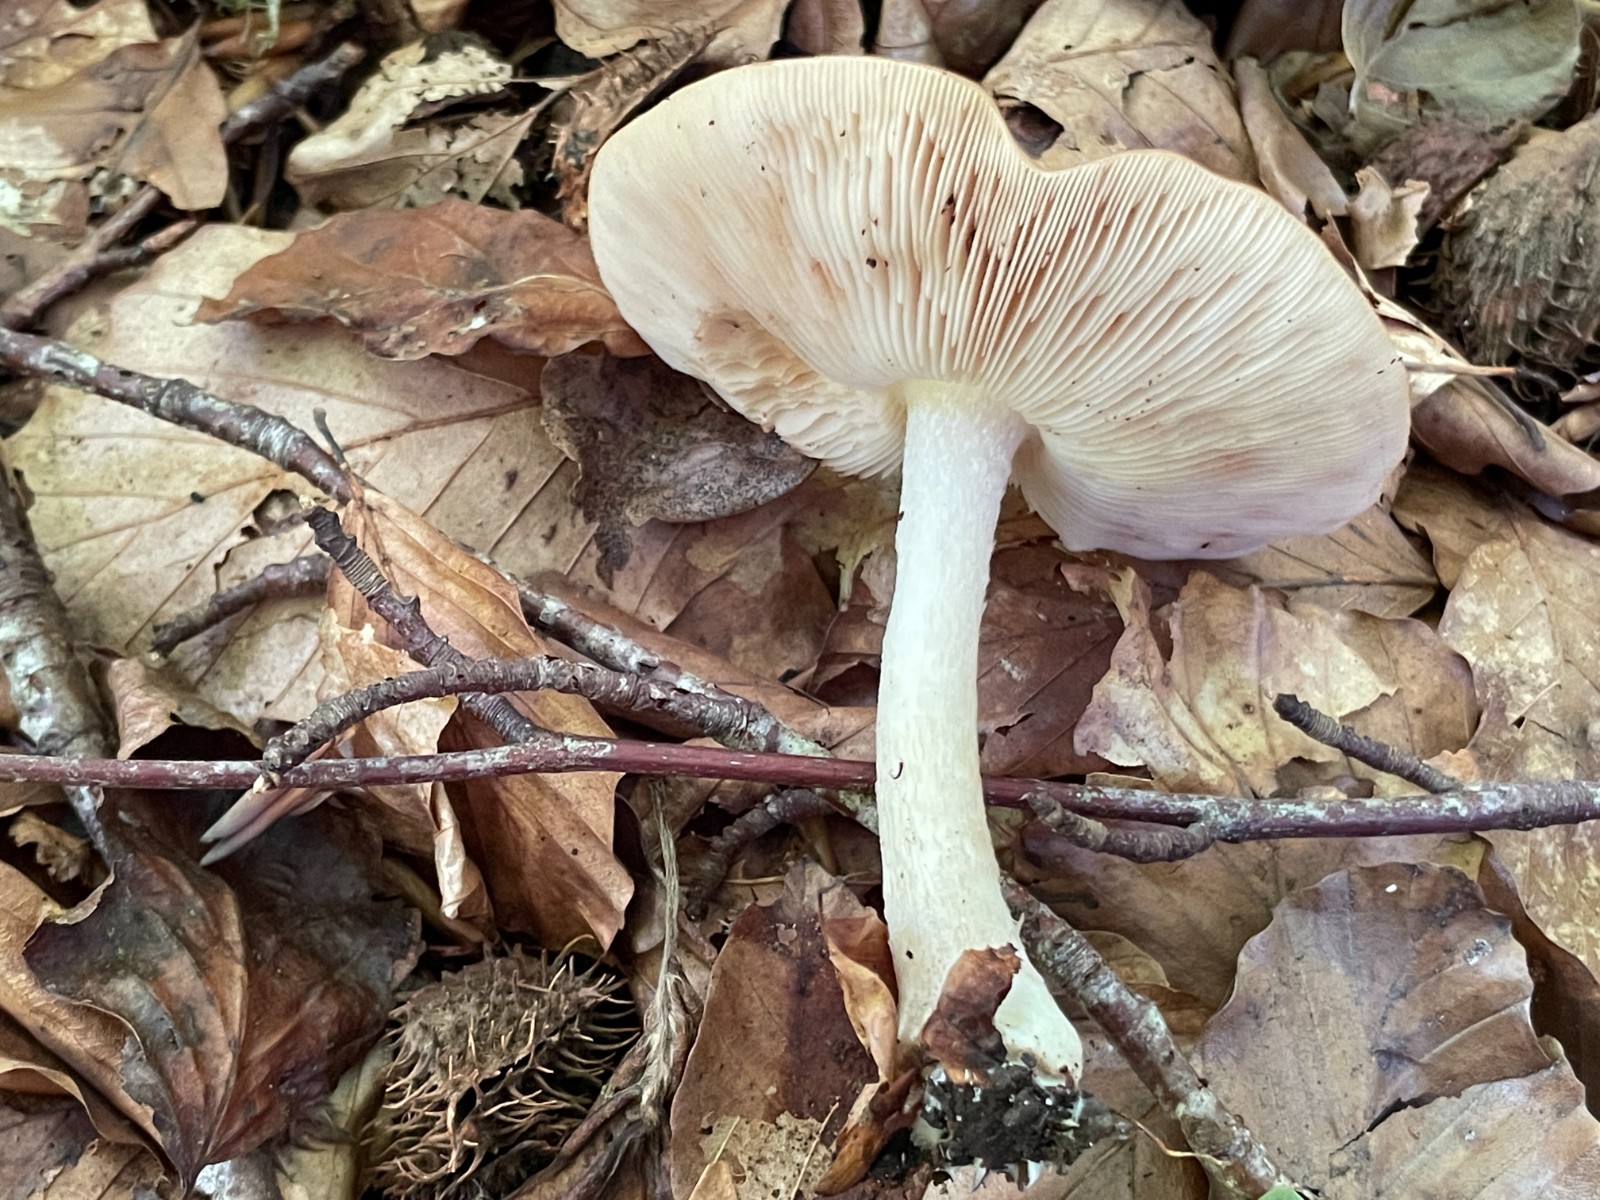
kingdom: Fungi
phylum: Basidiomycota
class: Agaricomycetes
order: Agaricales
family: Pluteaceae
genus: Pluteus
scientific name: Pluteus
